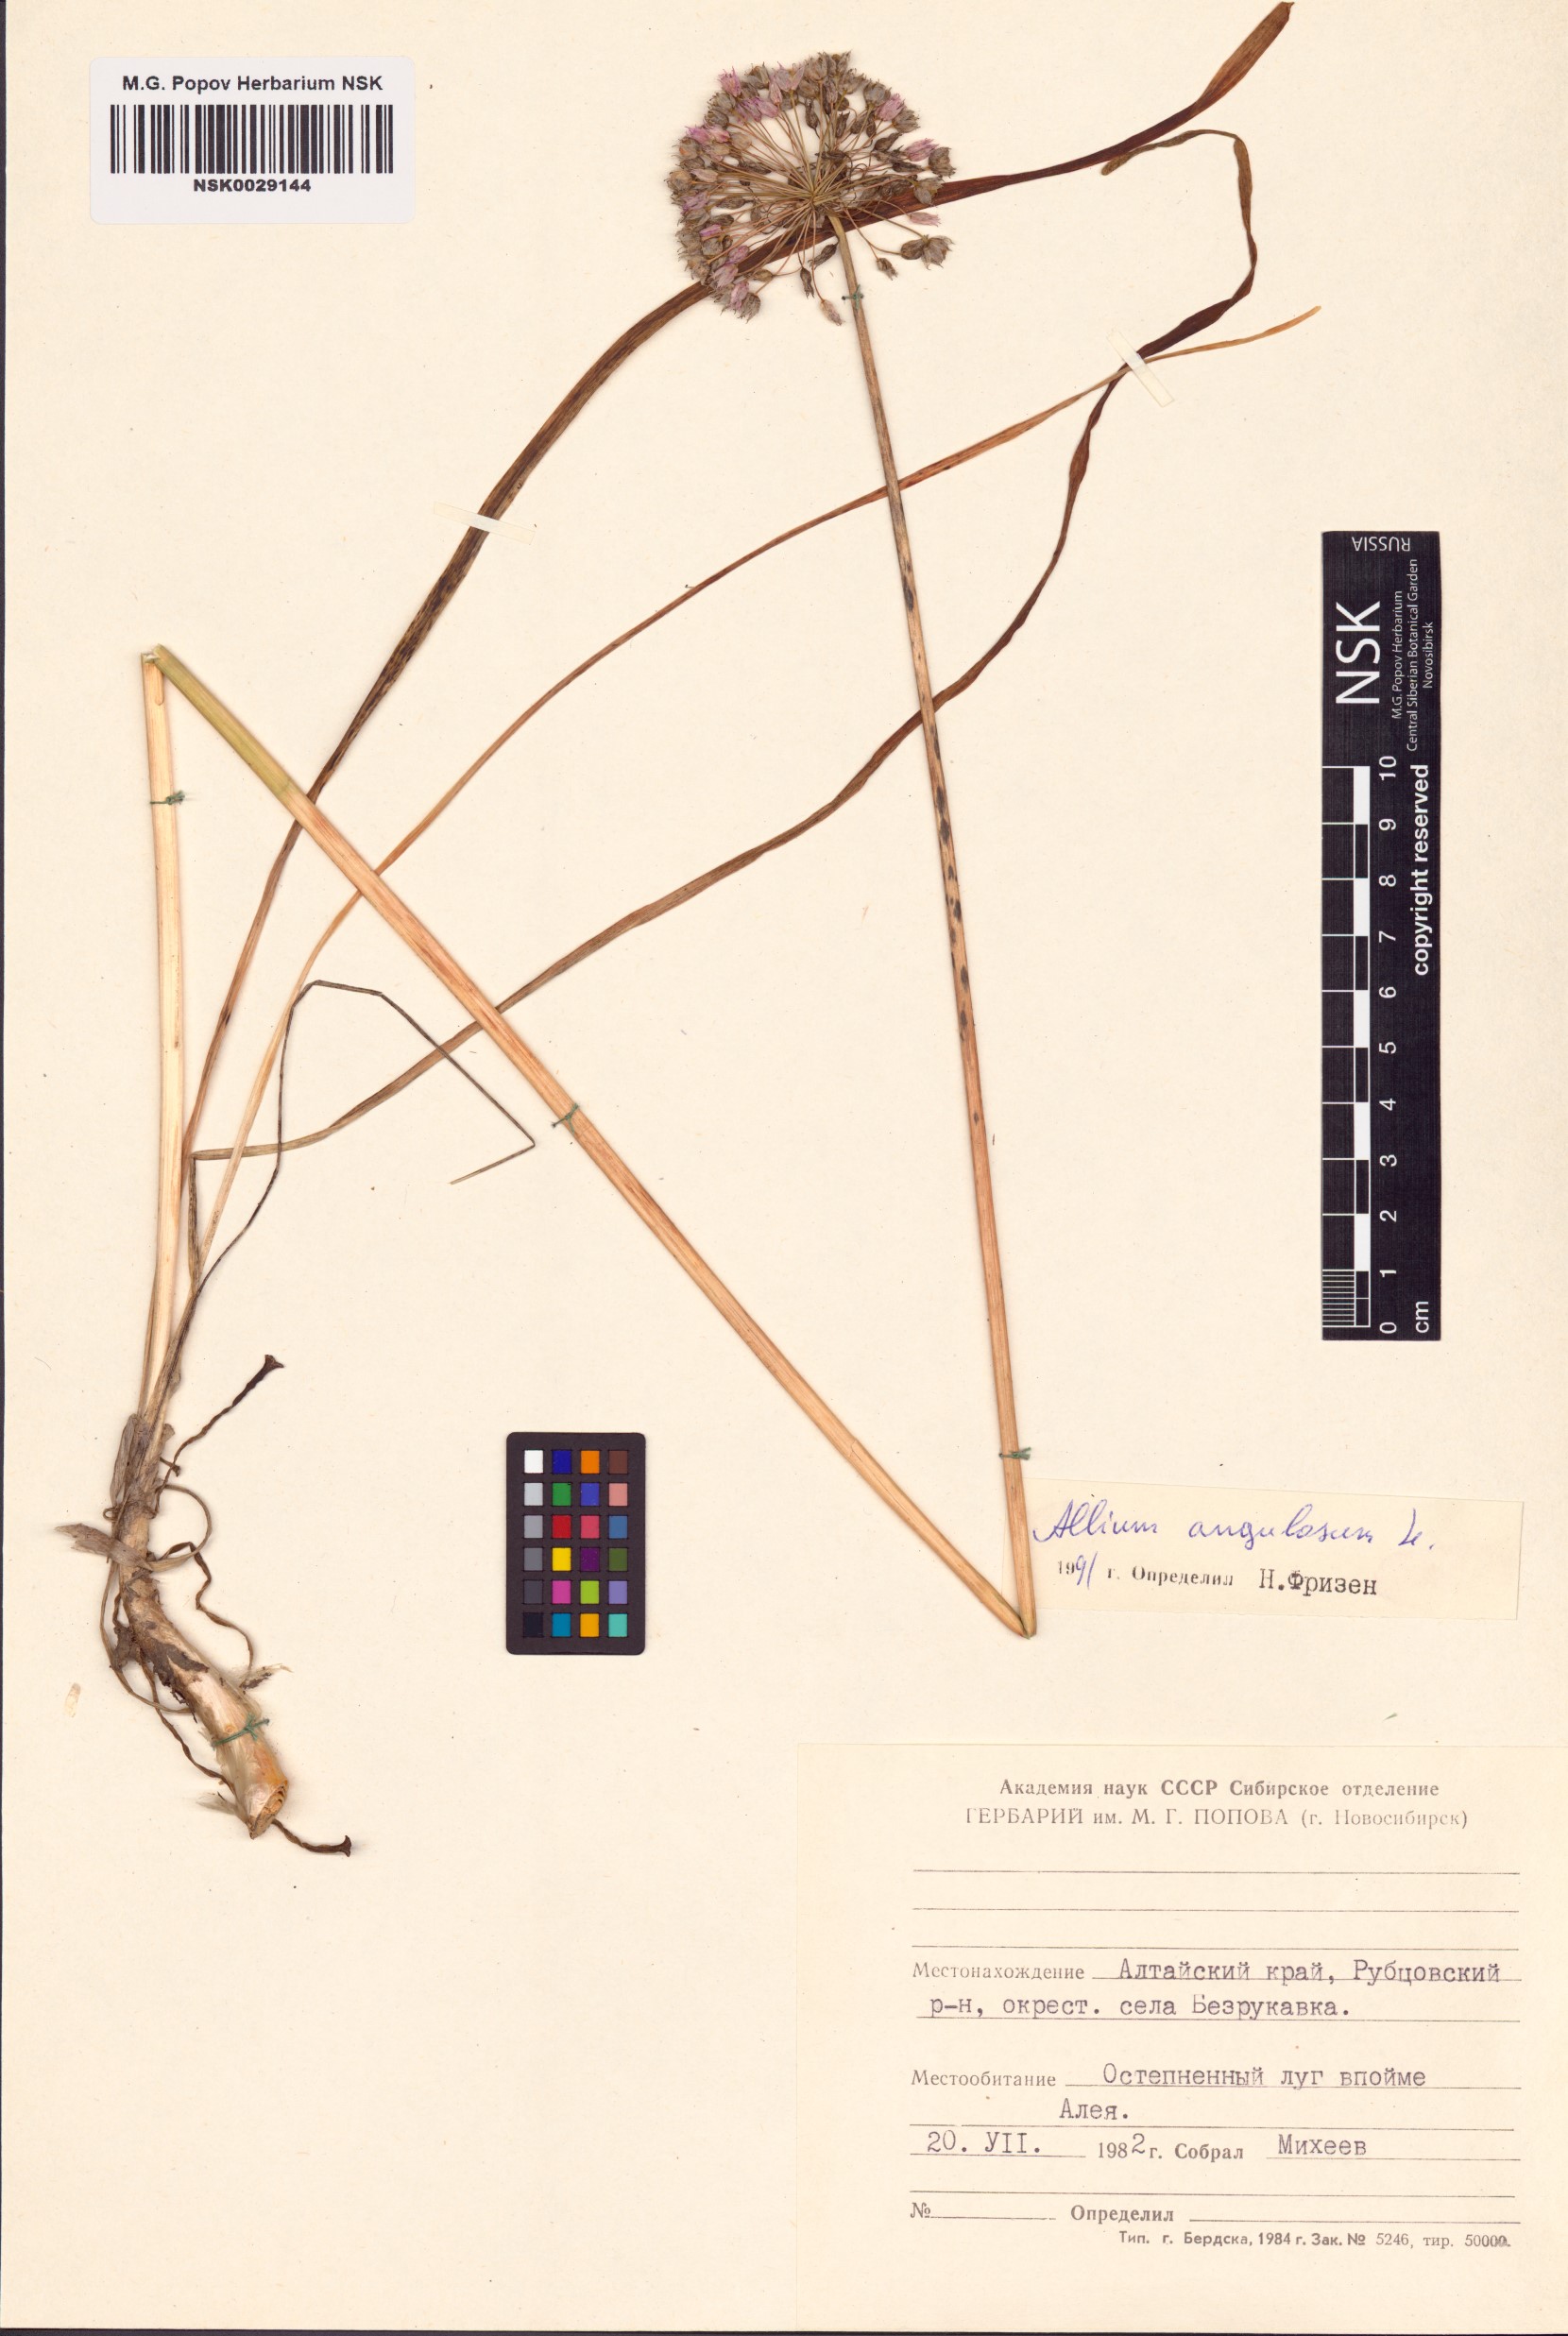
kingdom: Plantae
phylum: Tracheophyta
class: Liliopsida
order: Asparagales
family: Amaryllidaceae
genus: Allium
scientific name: Allium angulosum
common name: Mouse garlic
